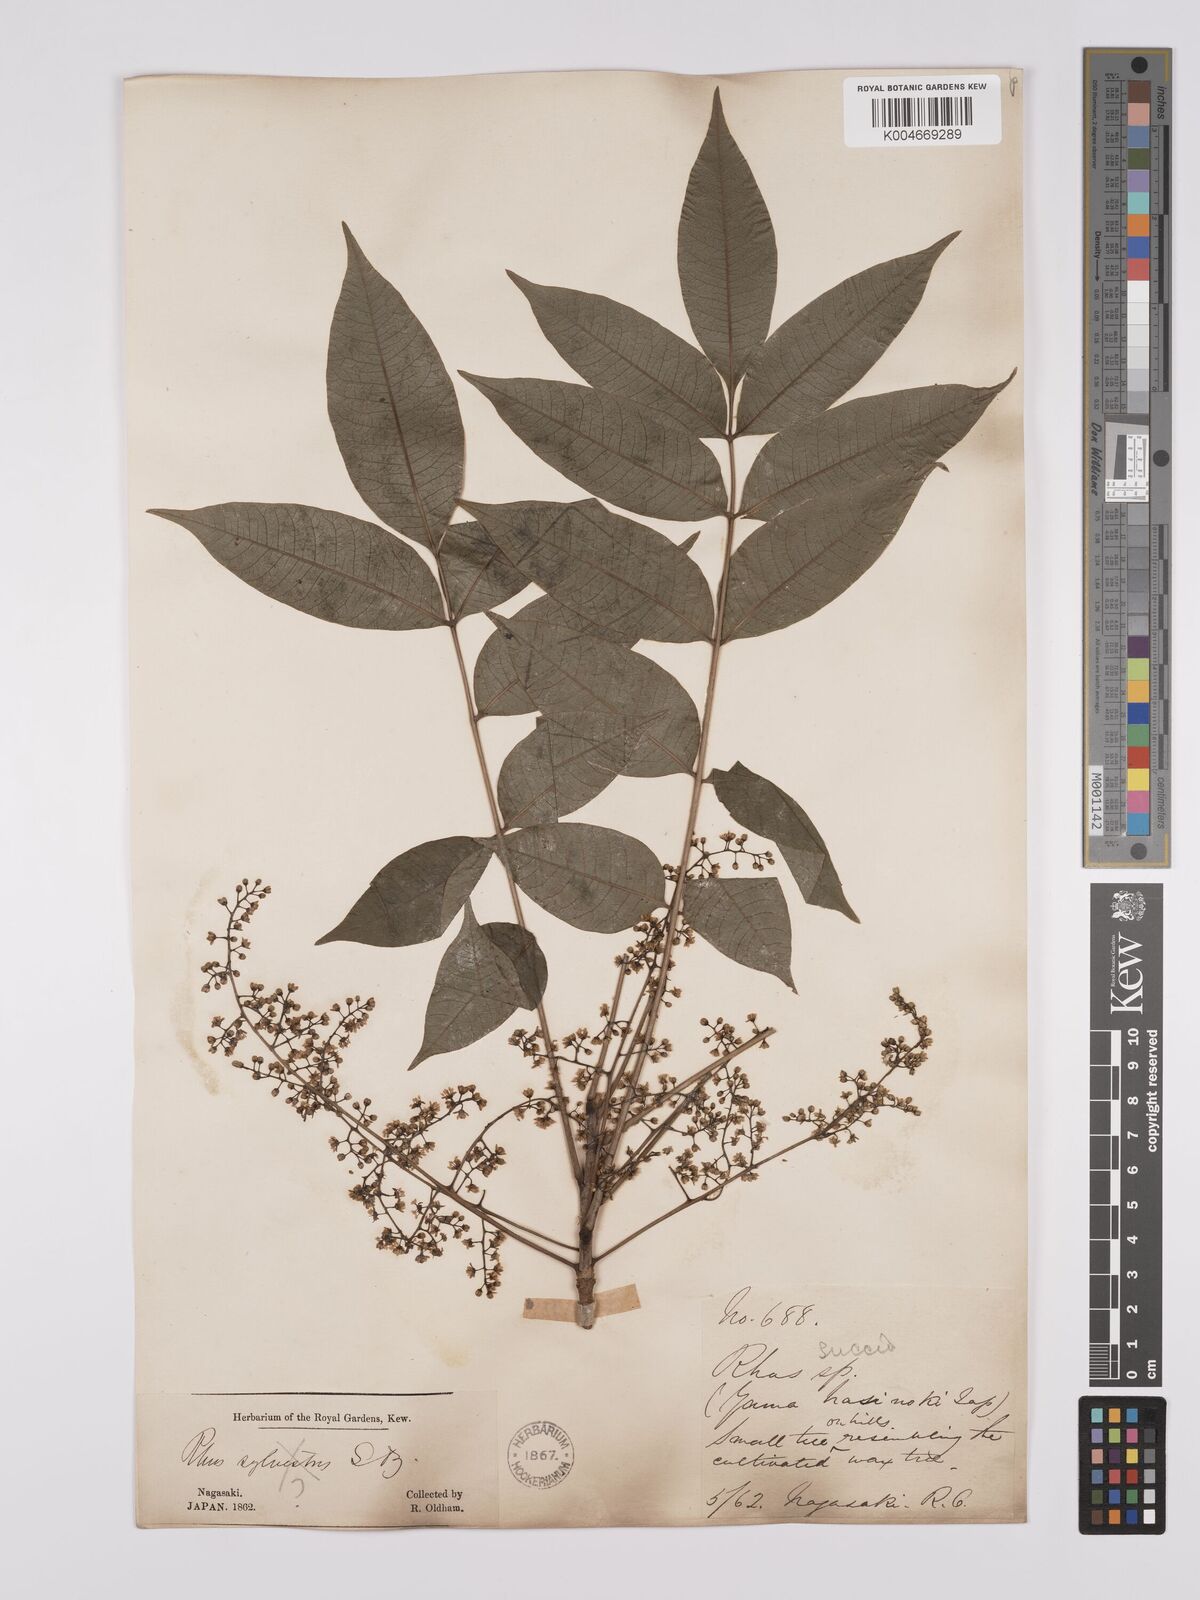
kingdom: Plantae
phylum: Tracheophyta
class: Magnoliopsida
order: Sapindales
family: Anacardiaceae
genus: Toxicodendron
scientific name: Toxicodendron succedaneum
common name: Wax tree
